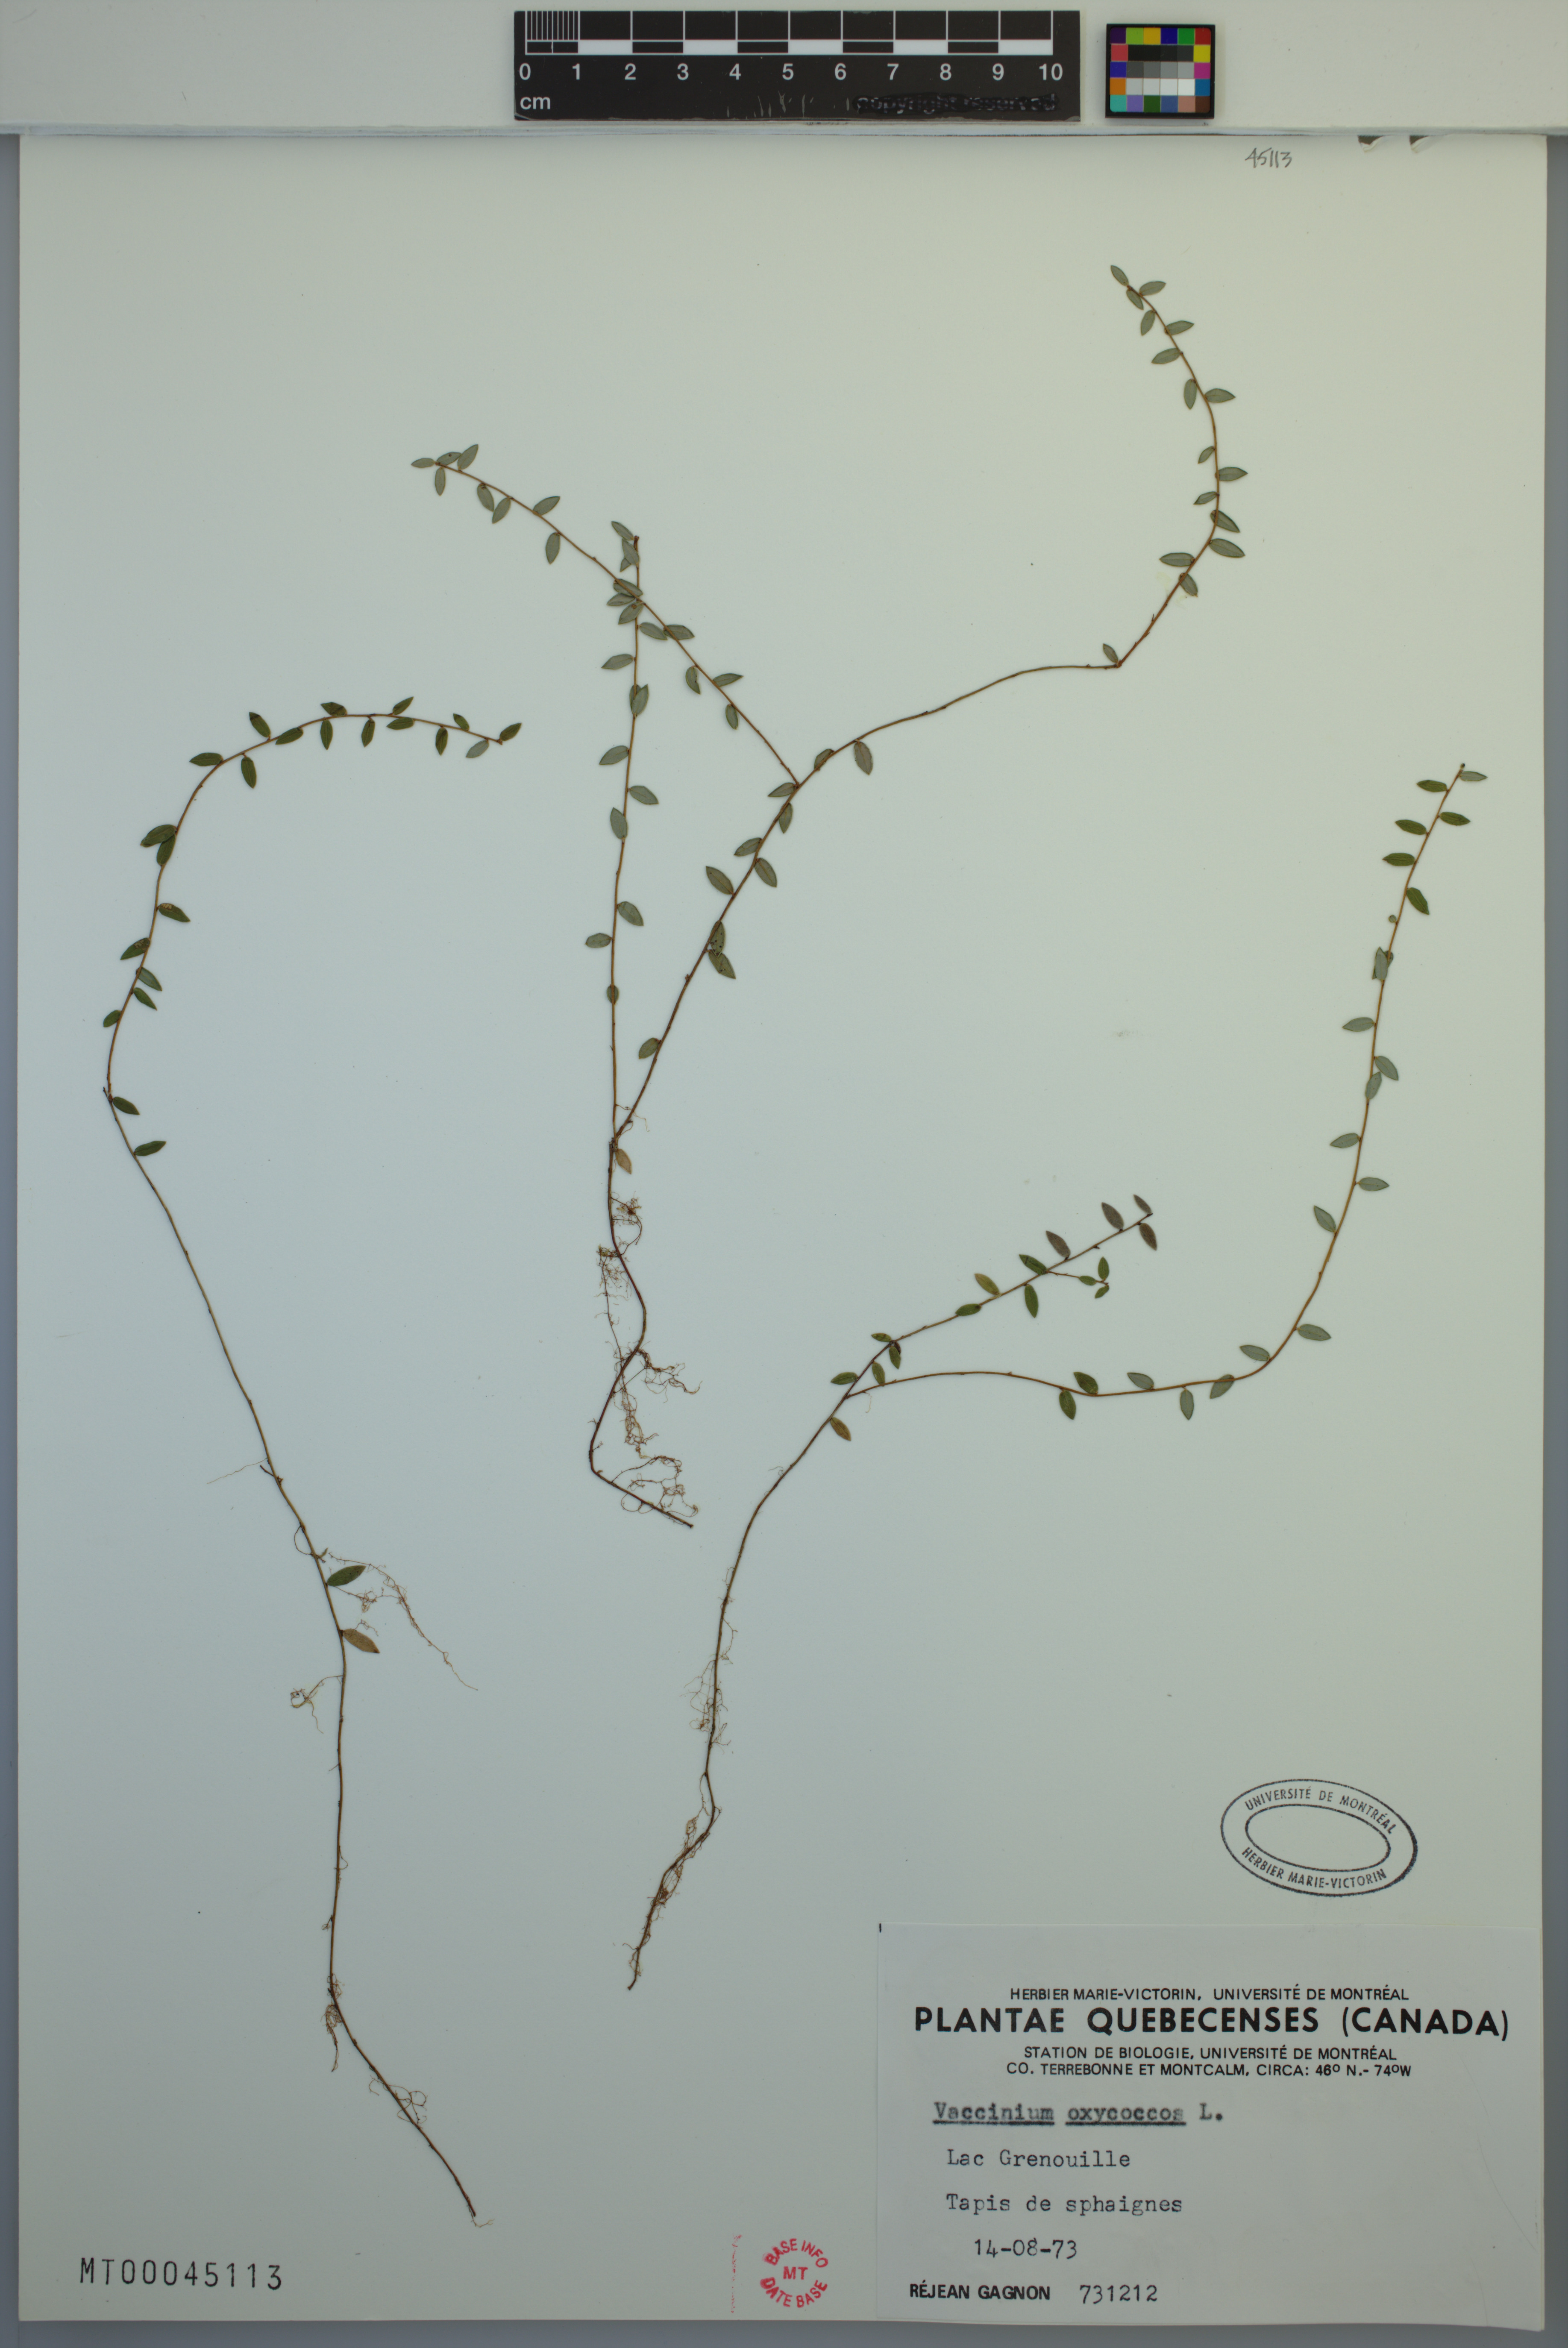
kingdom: Plantae
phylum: Tracheophyta
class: Magnoliopsida
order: Ericales
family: Ericaceae
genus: Vaccinium
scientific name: Vaccinium oxycoccos
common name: Cranberry
